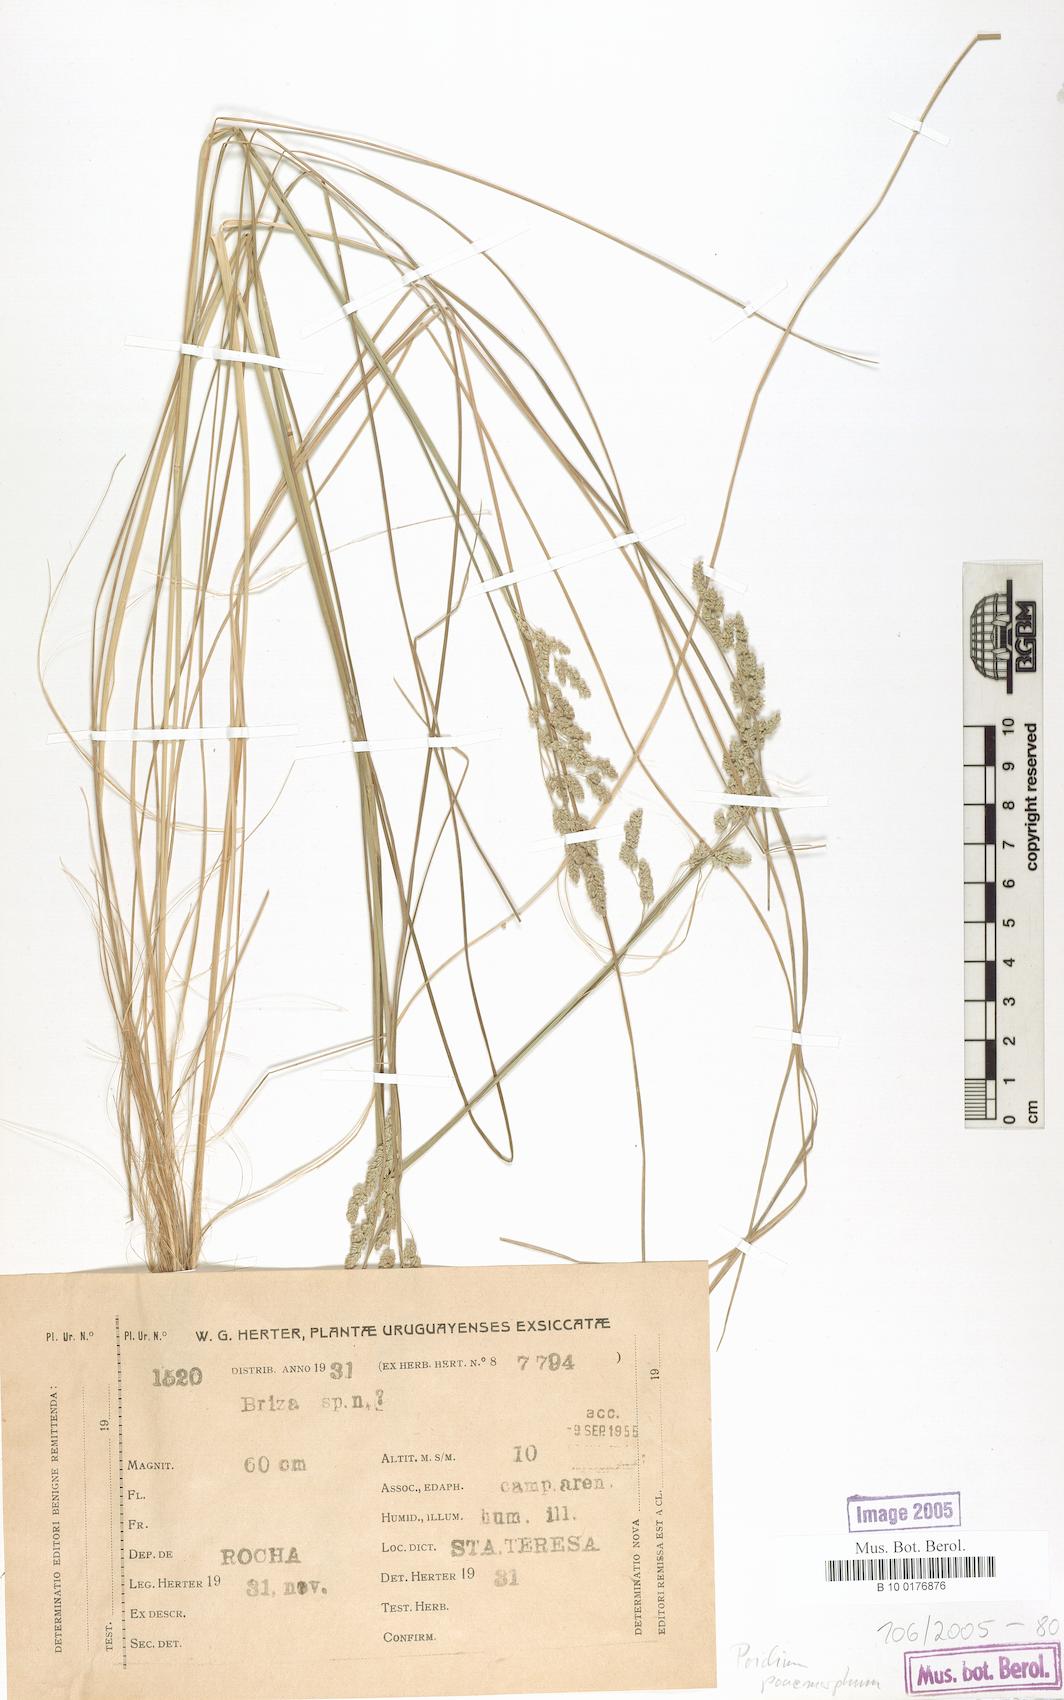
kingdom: Plantae
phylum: Tracheophyta
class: Liliopsida
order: Poales
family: Poaceae
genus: Chascolytrum
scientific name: Chascolytrum poomorphum
